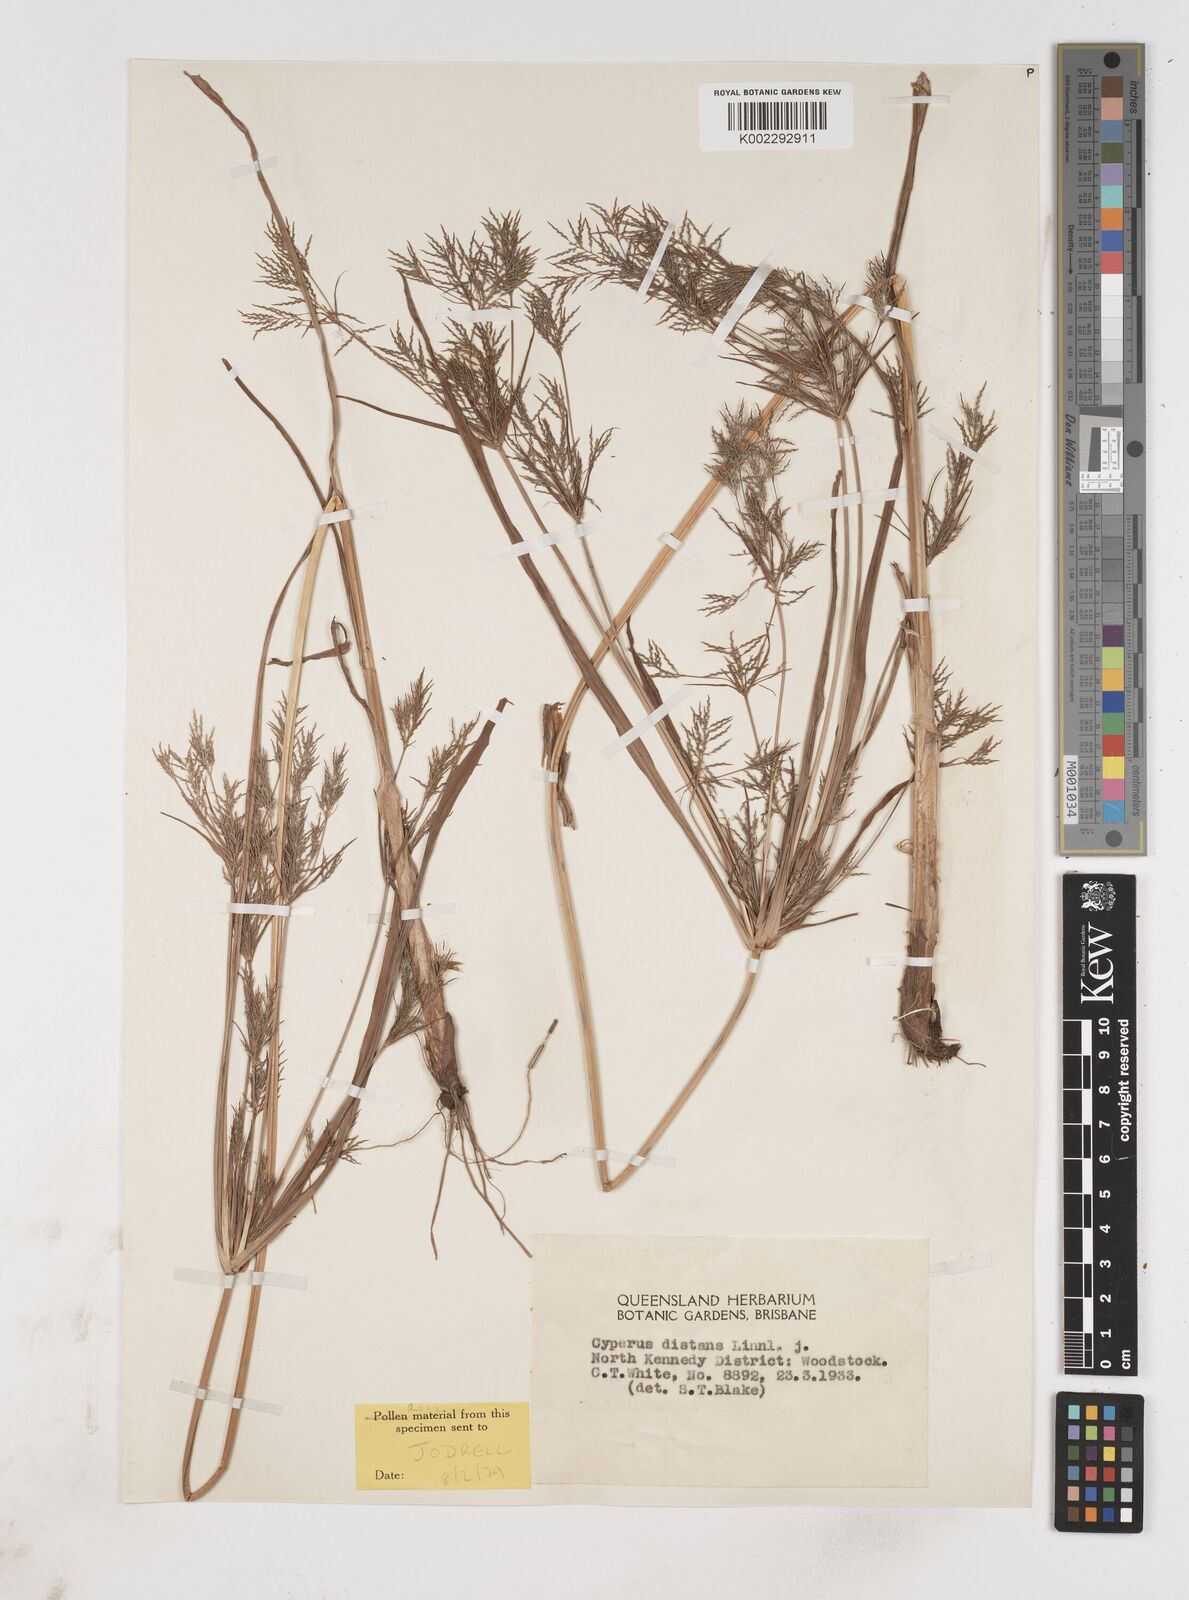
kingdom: Plantae
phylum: Tracheophyta
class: Liliopsida
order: Poales
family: Cyperaceae
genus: Cyperus
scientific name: Cyperus distans
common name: Slender cyperus
